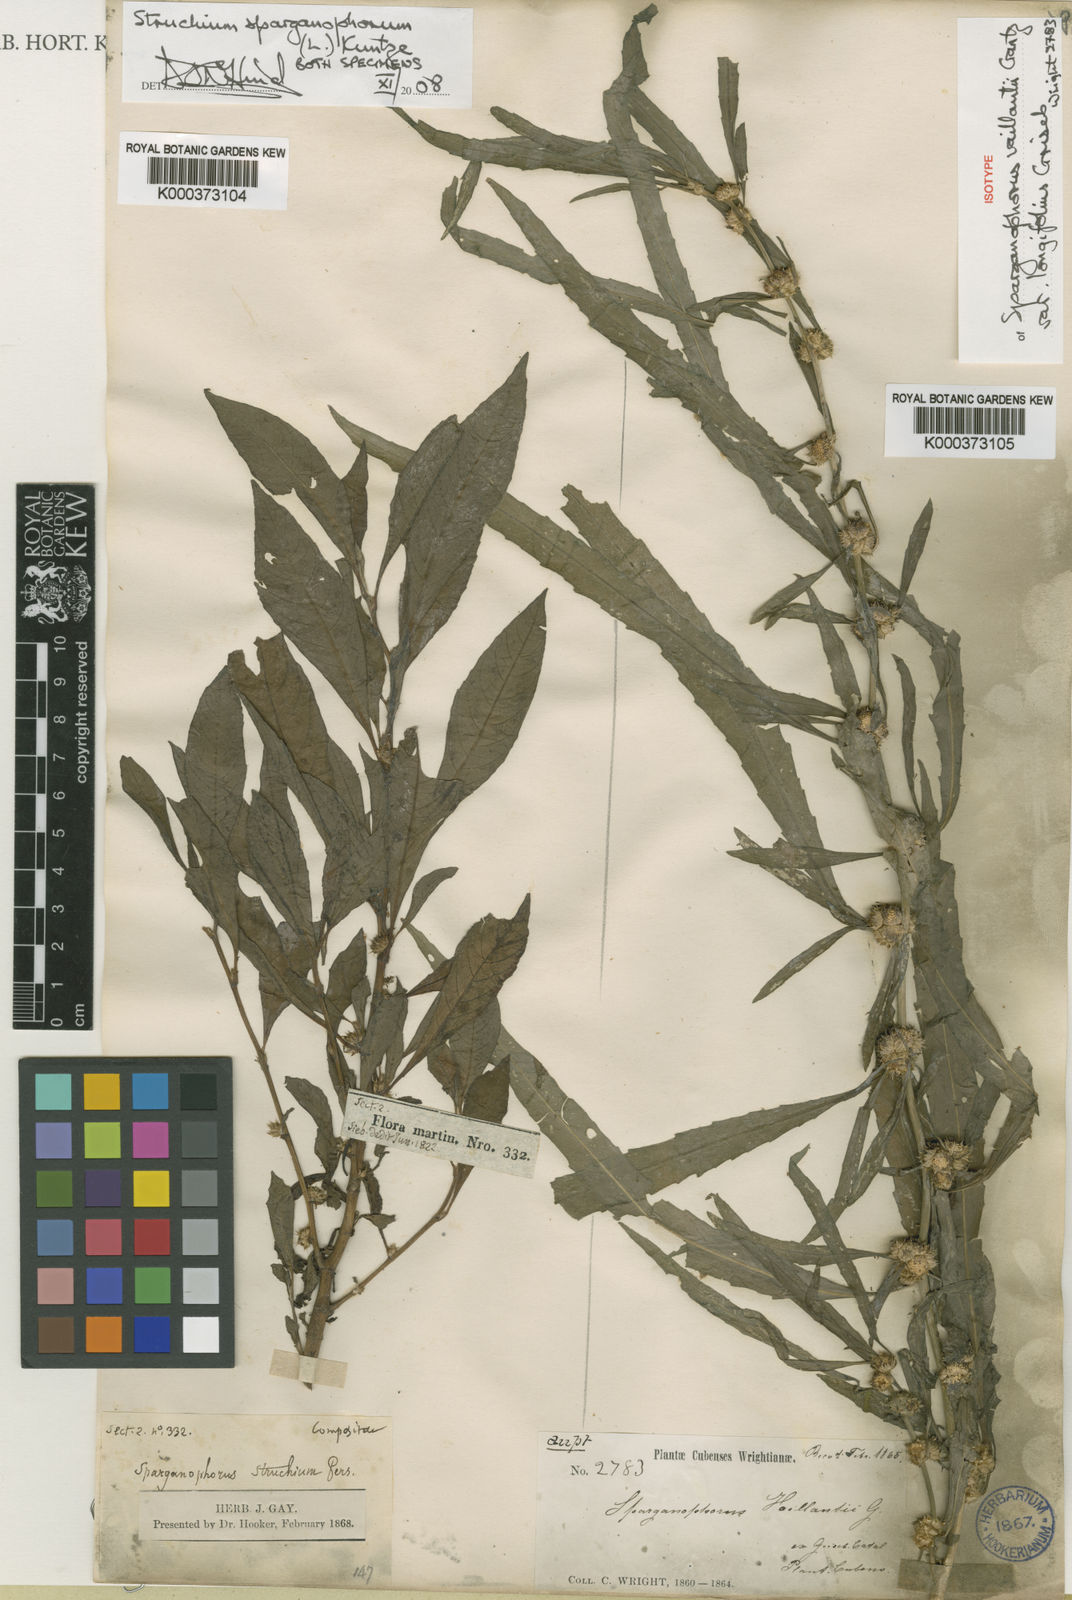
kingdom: Plantae
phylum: Tracheophyta
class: Magnoliopsida
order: Asterales
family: Asteraceae
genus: Struchium
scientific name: Struchium sparganophorum
